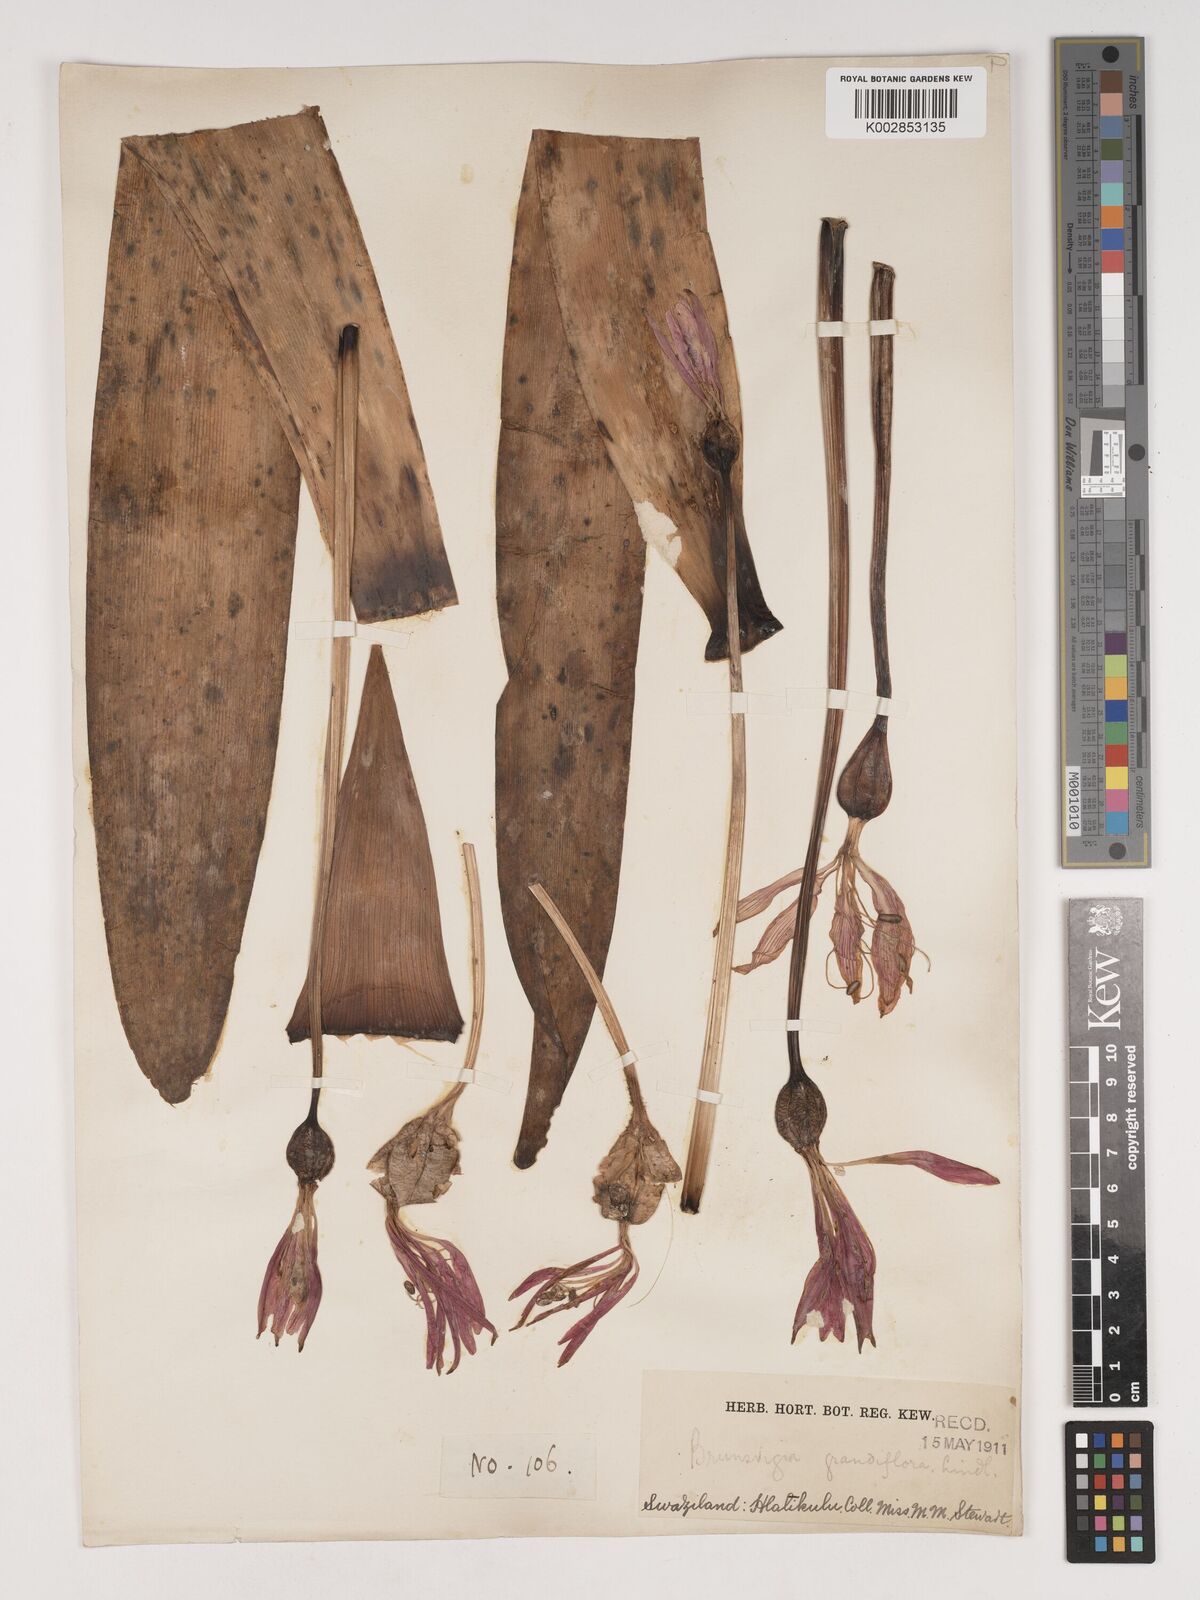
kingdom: Plantae
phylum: Tracheophyta
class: Liliopsida
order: Asparagales
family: Amaryllidaceae
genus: Brunsvigia
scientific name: Brunsvigia grandiflora
